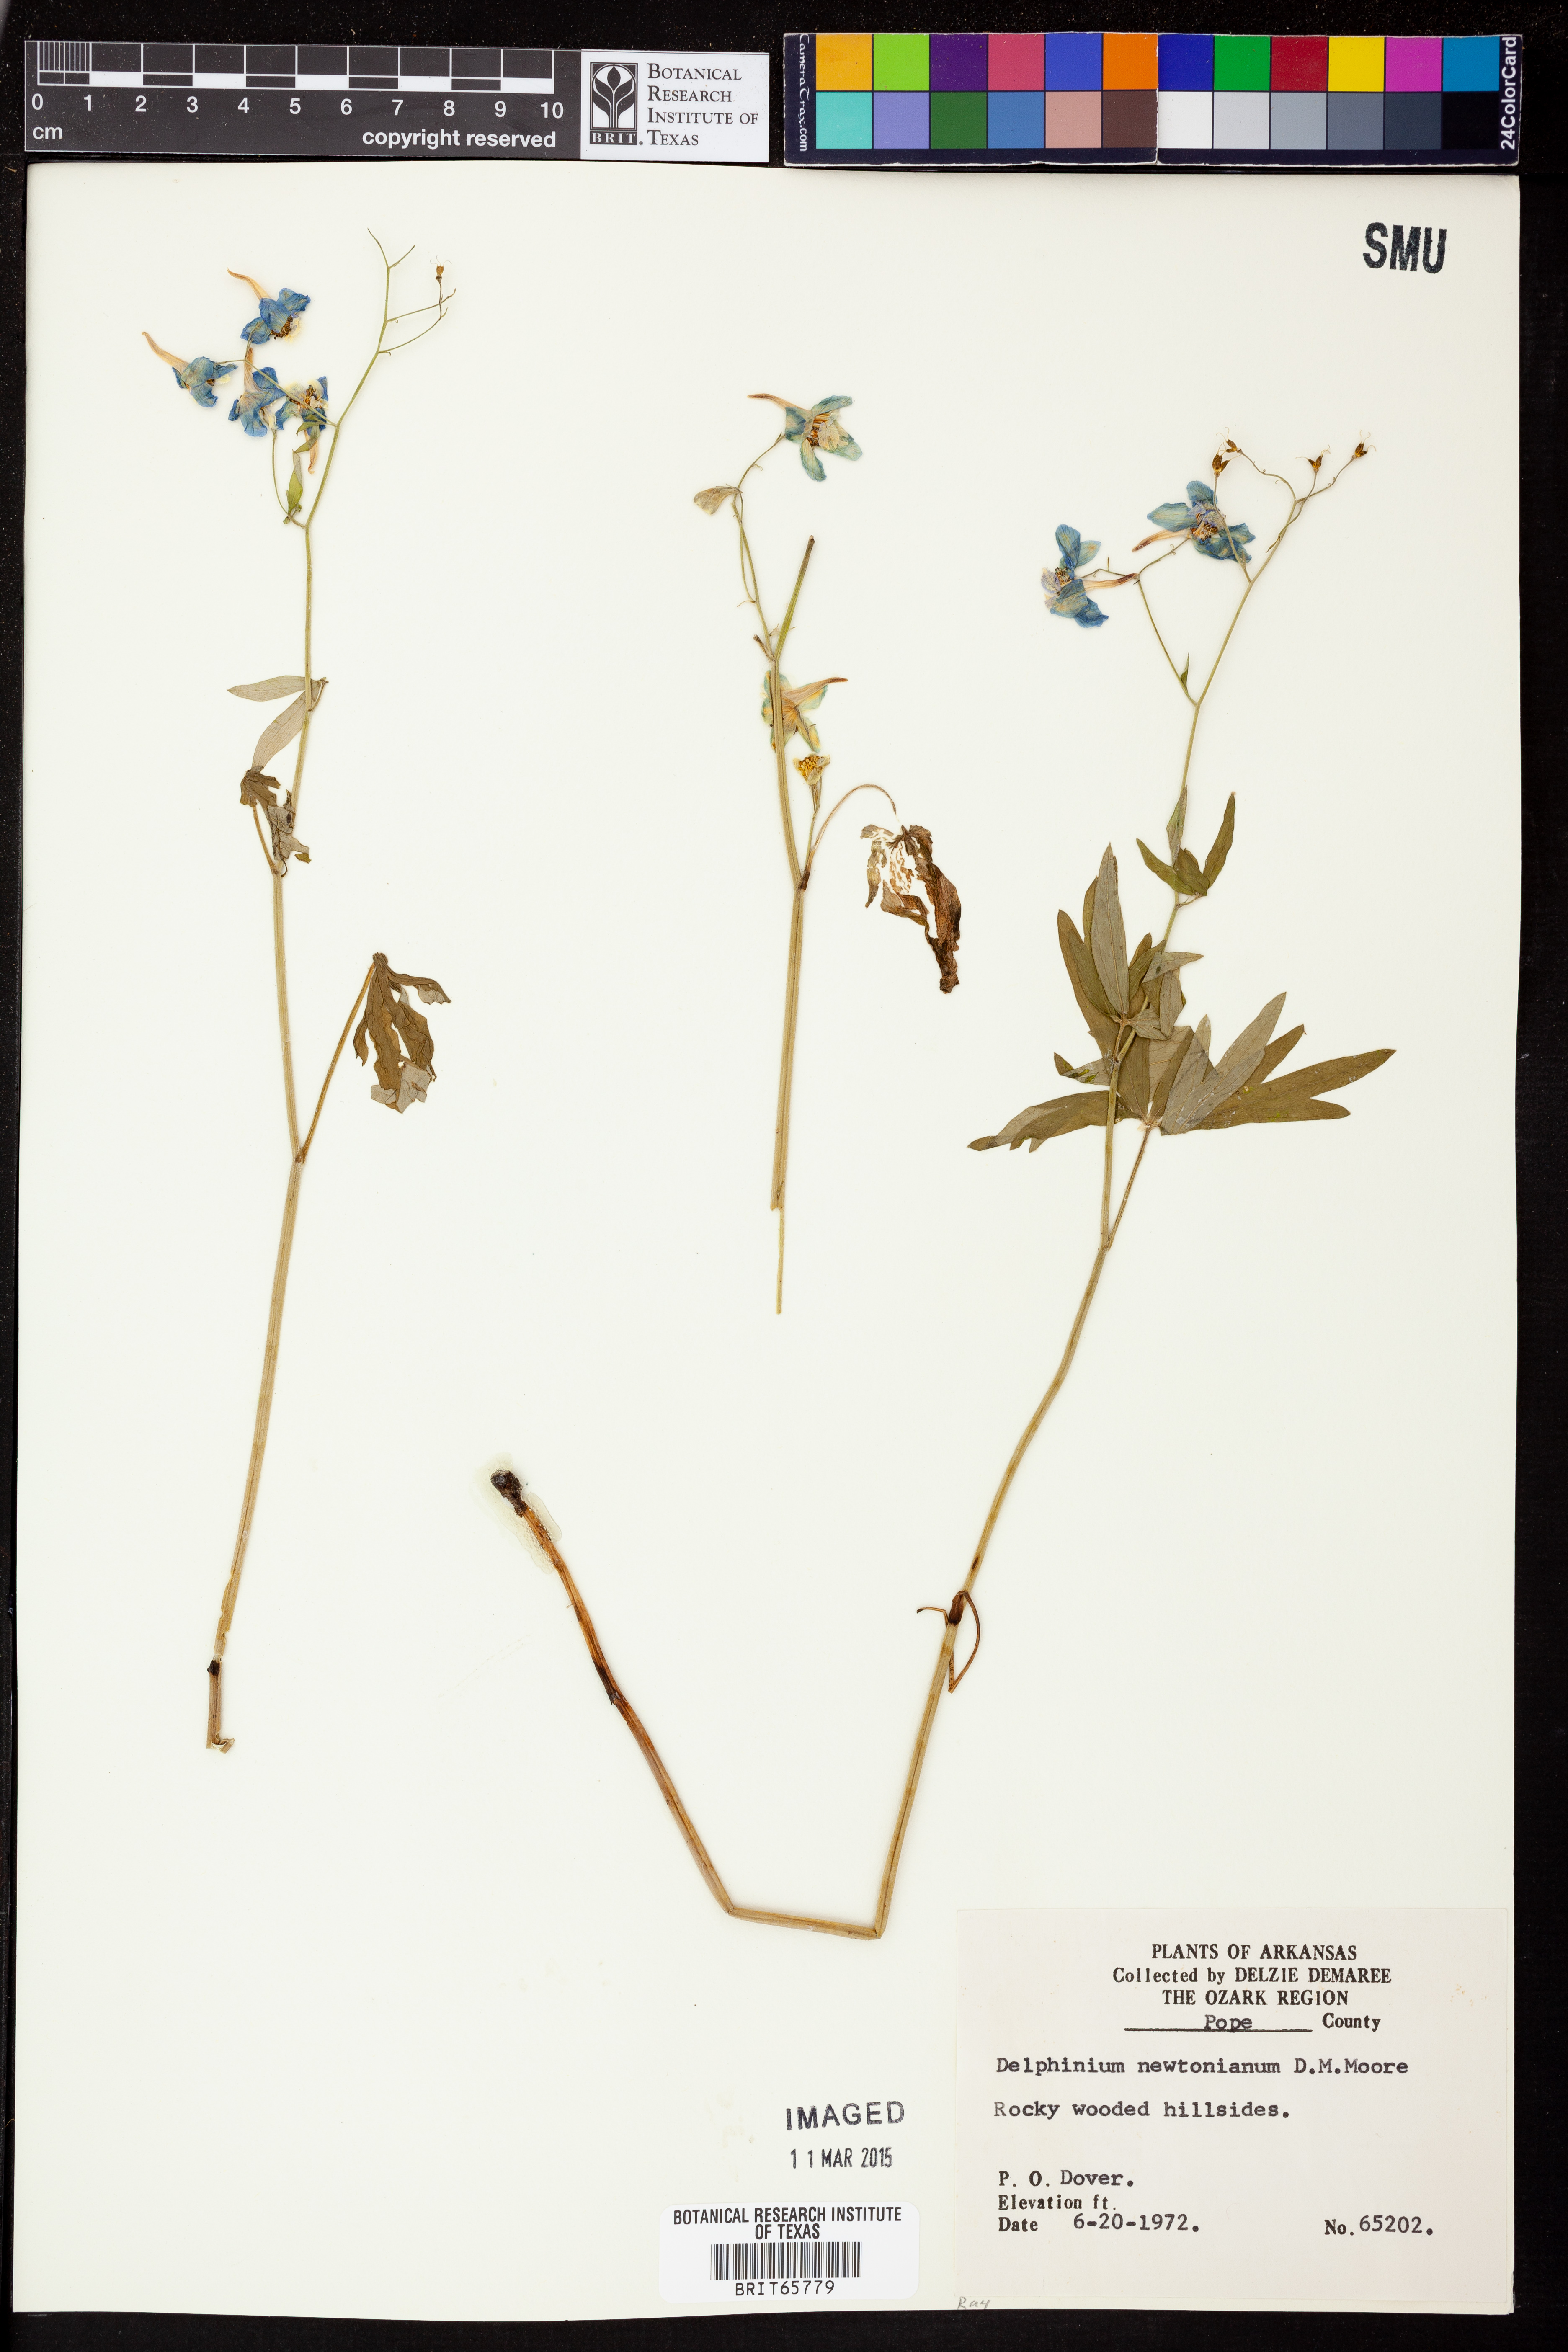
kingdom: Plantae
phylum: Tracheophyta
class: Magnoliopsida
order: Ranunculales
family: Ranunculaceae
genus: Delphinium
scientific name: Delphinium newtonianum
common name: Ozark larkspur
